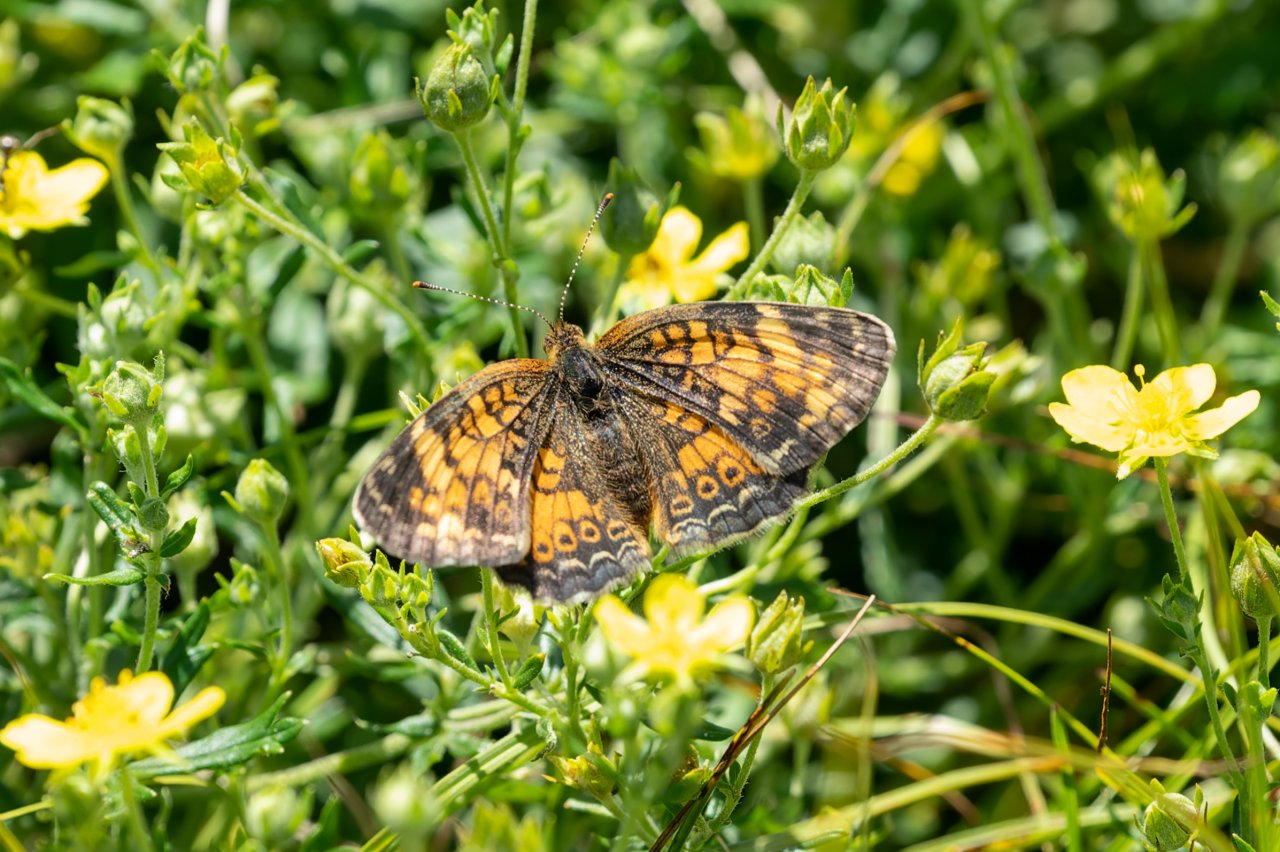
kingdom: Animalia
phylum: Arthropoda
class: Insecta
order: Lepidoptera
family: Nymphalidae
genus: Phyciodes
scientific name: Phyciodes tharos
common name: Pearl Crescent
